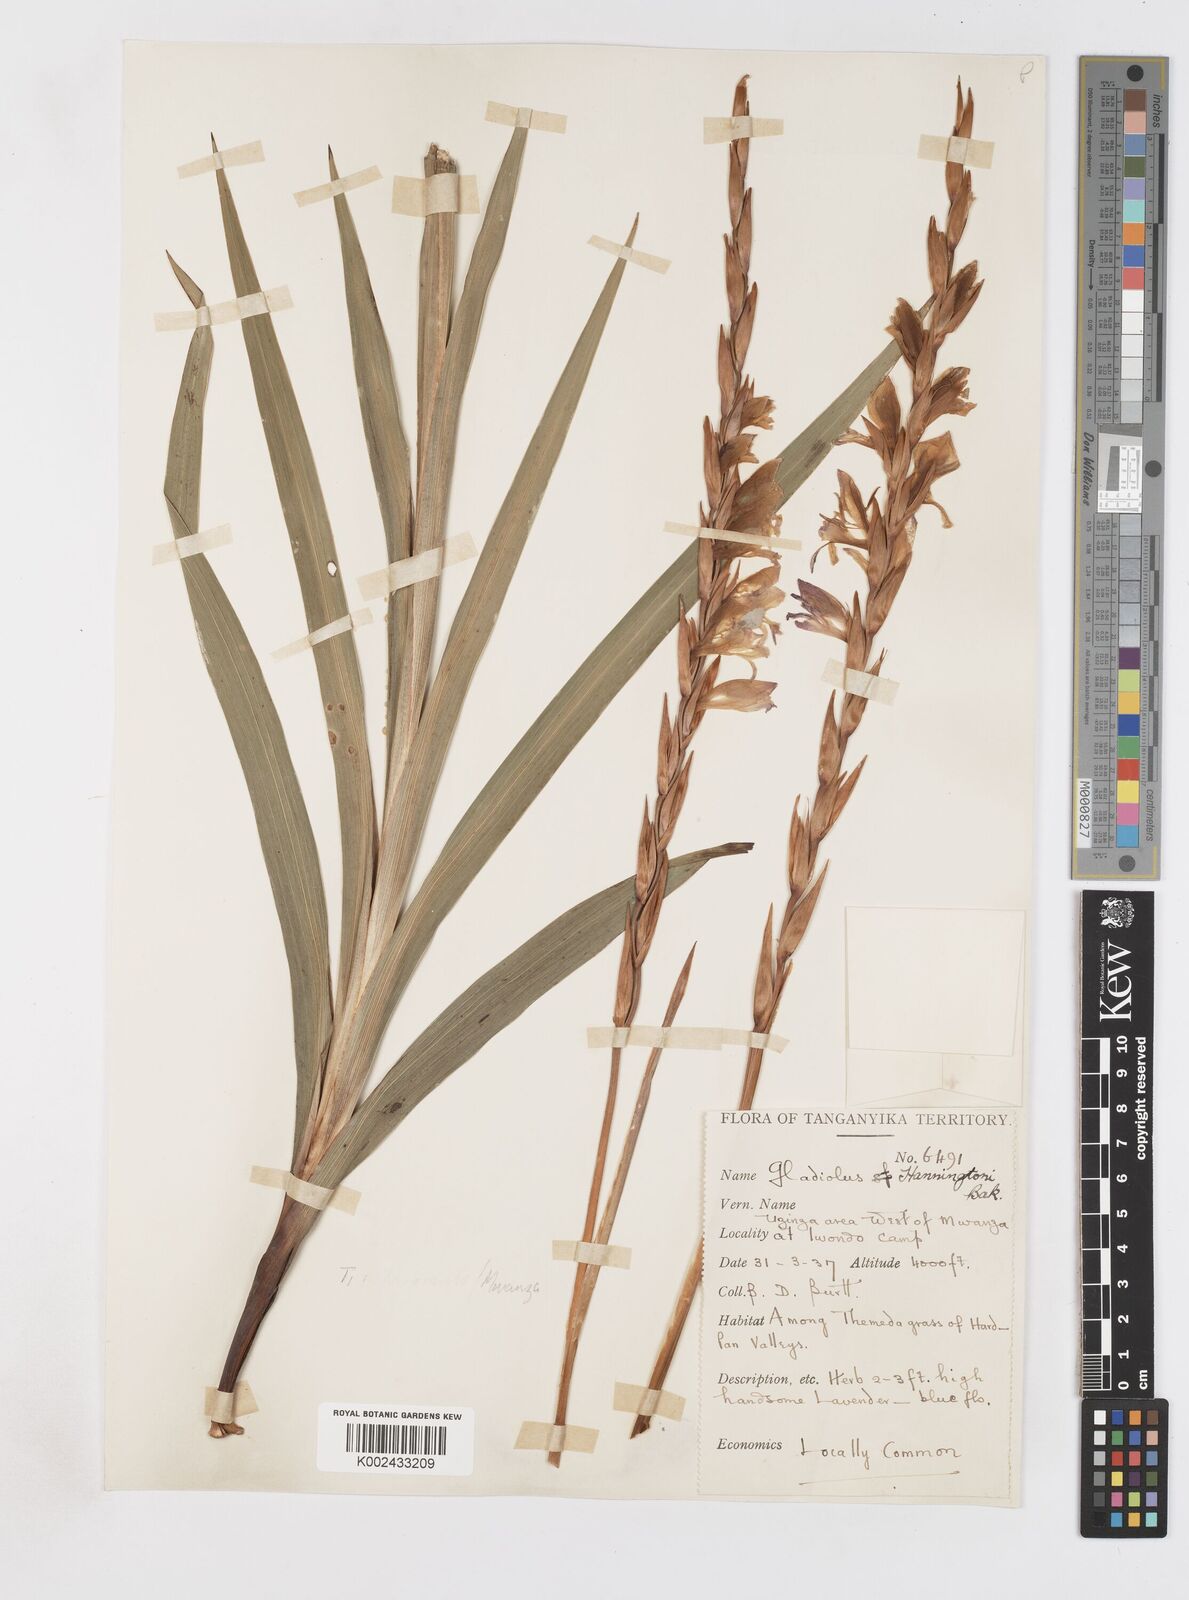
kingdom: Plantae
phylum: Tracheophyta
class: Liliopsida
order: Asparagales
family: Iridaceae
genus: Gladiolus
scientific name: Gladiolus gregarius
